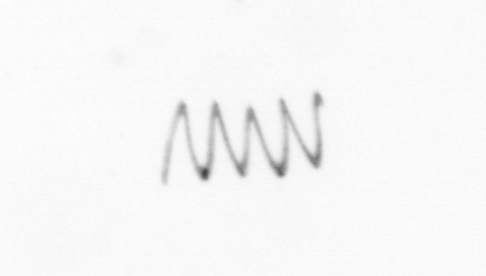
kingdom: Chromista
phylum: Ochrophyta
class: Bacillariophyceae
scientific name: Bacillariophyceae
